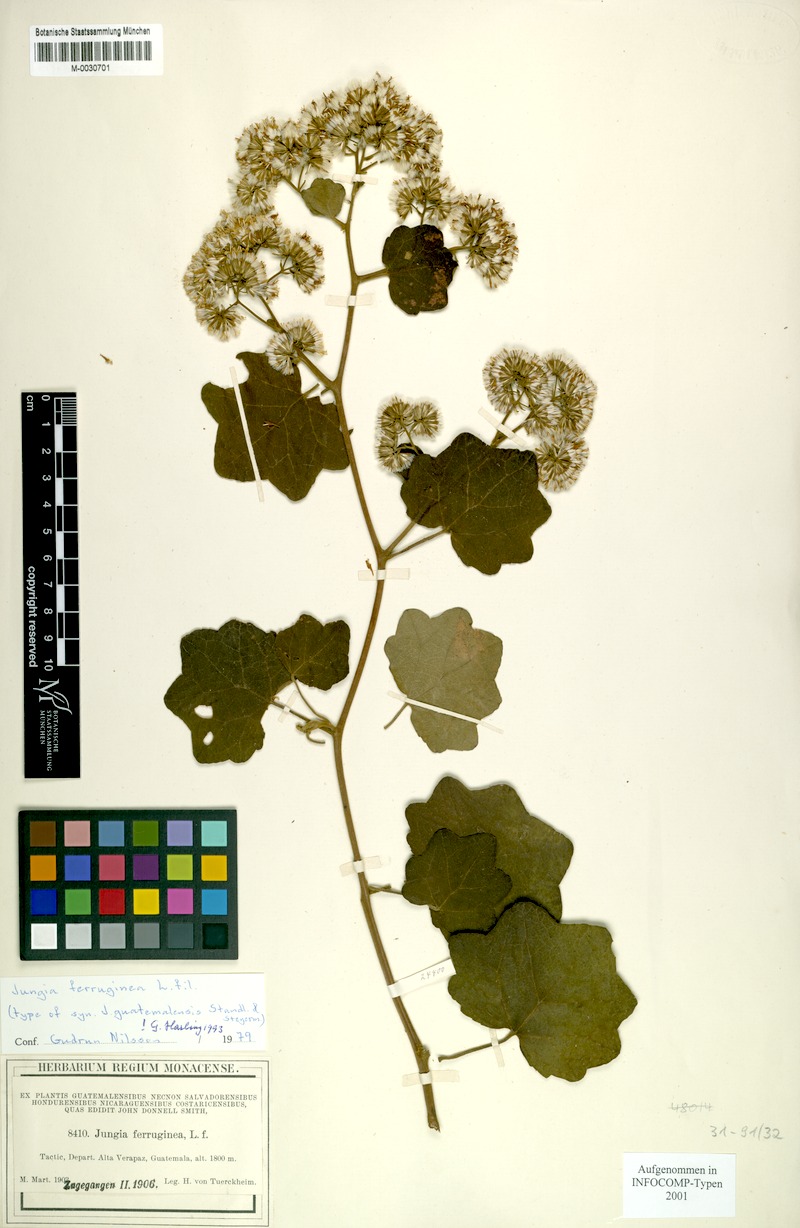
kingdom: Plantae
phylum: Tracheophyta
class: Magnoliopsida
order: Asterales
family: Asteraceae
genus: Jungia
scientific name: Jungia ferruginea
